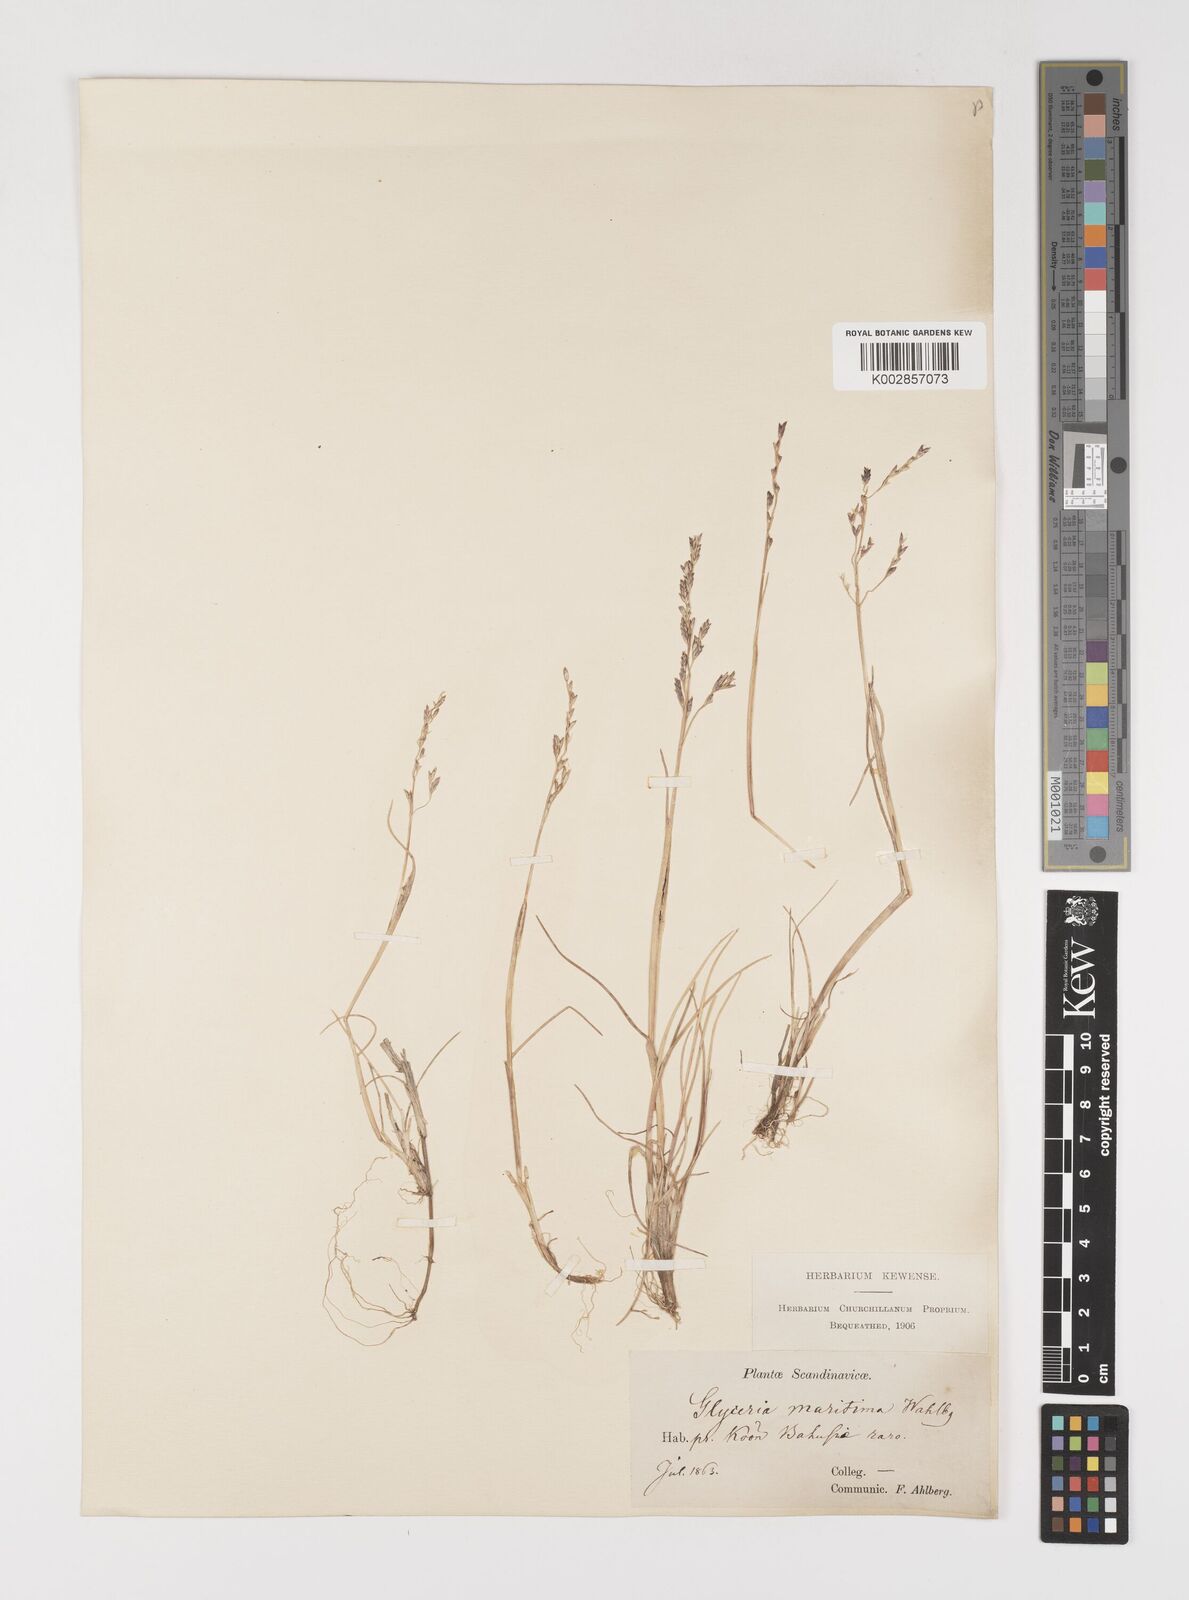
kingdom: Plantae
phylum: Tracheophyta
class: Liliopsida
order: Poales
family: Poaceae
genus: Puccinellia
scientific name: Puccinellia maritima
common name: Common saltmarsh grass
